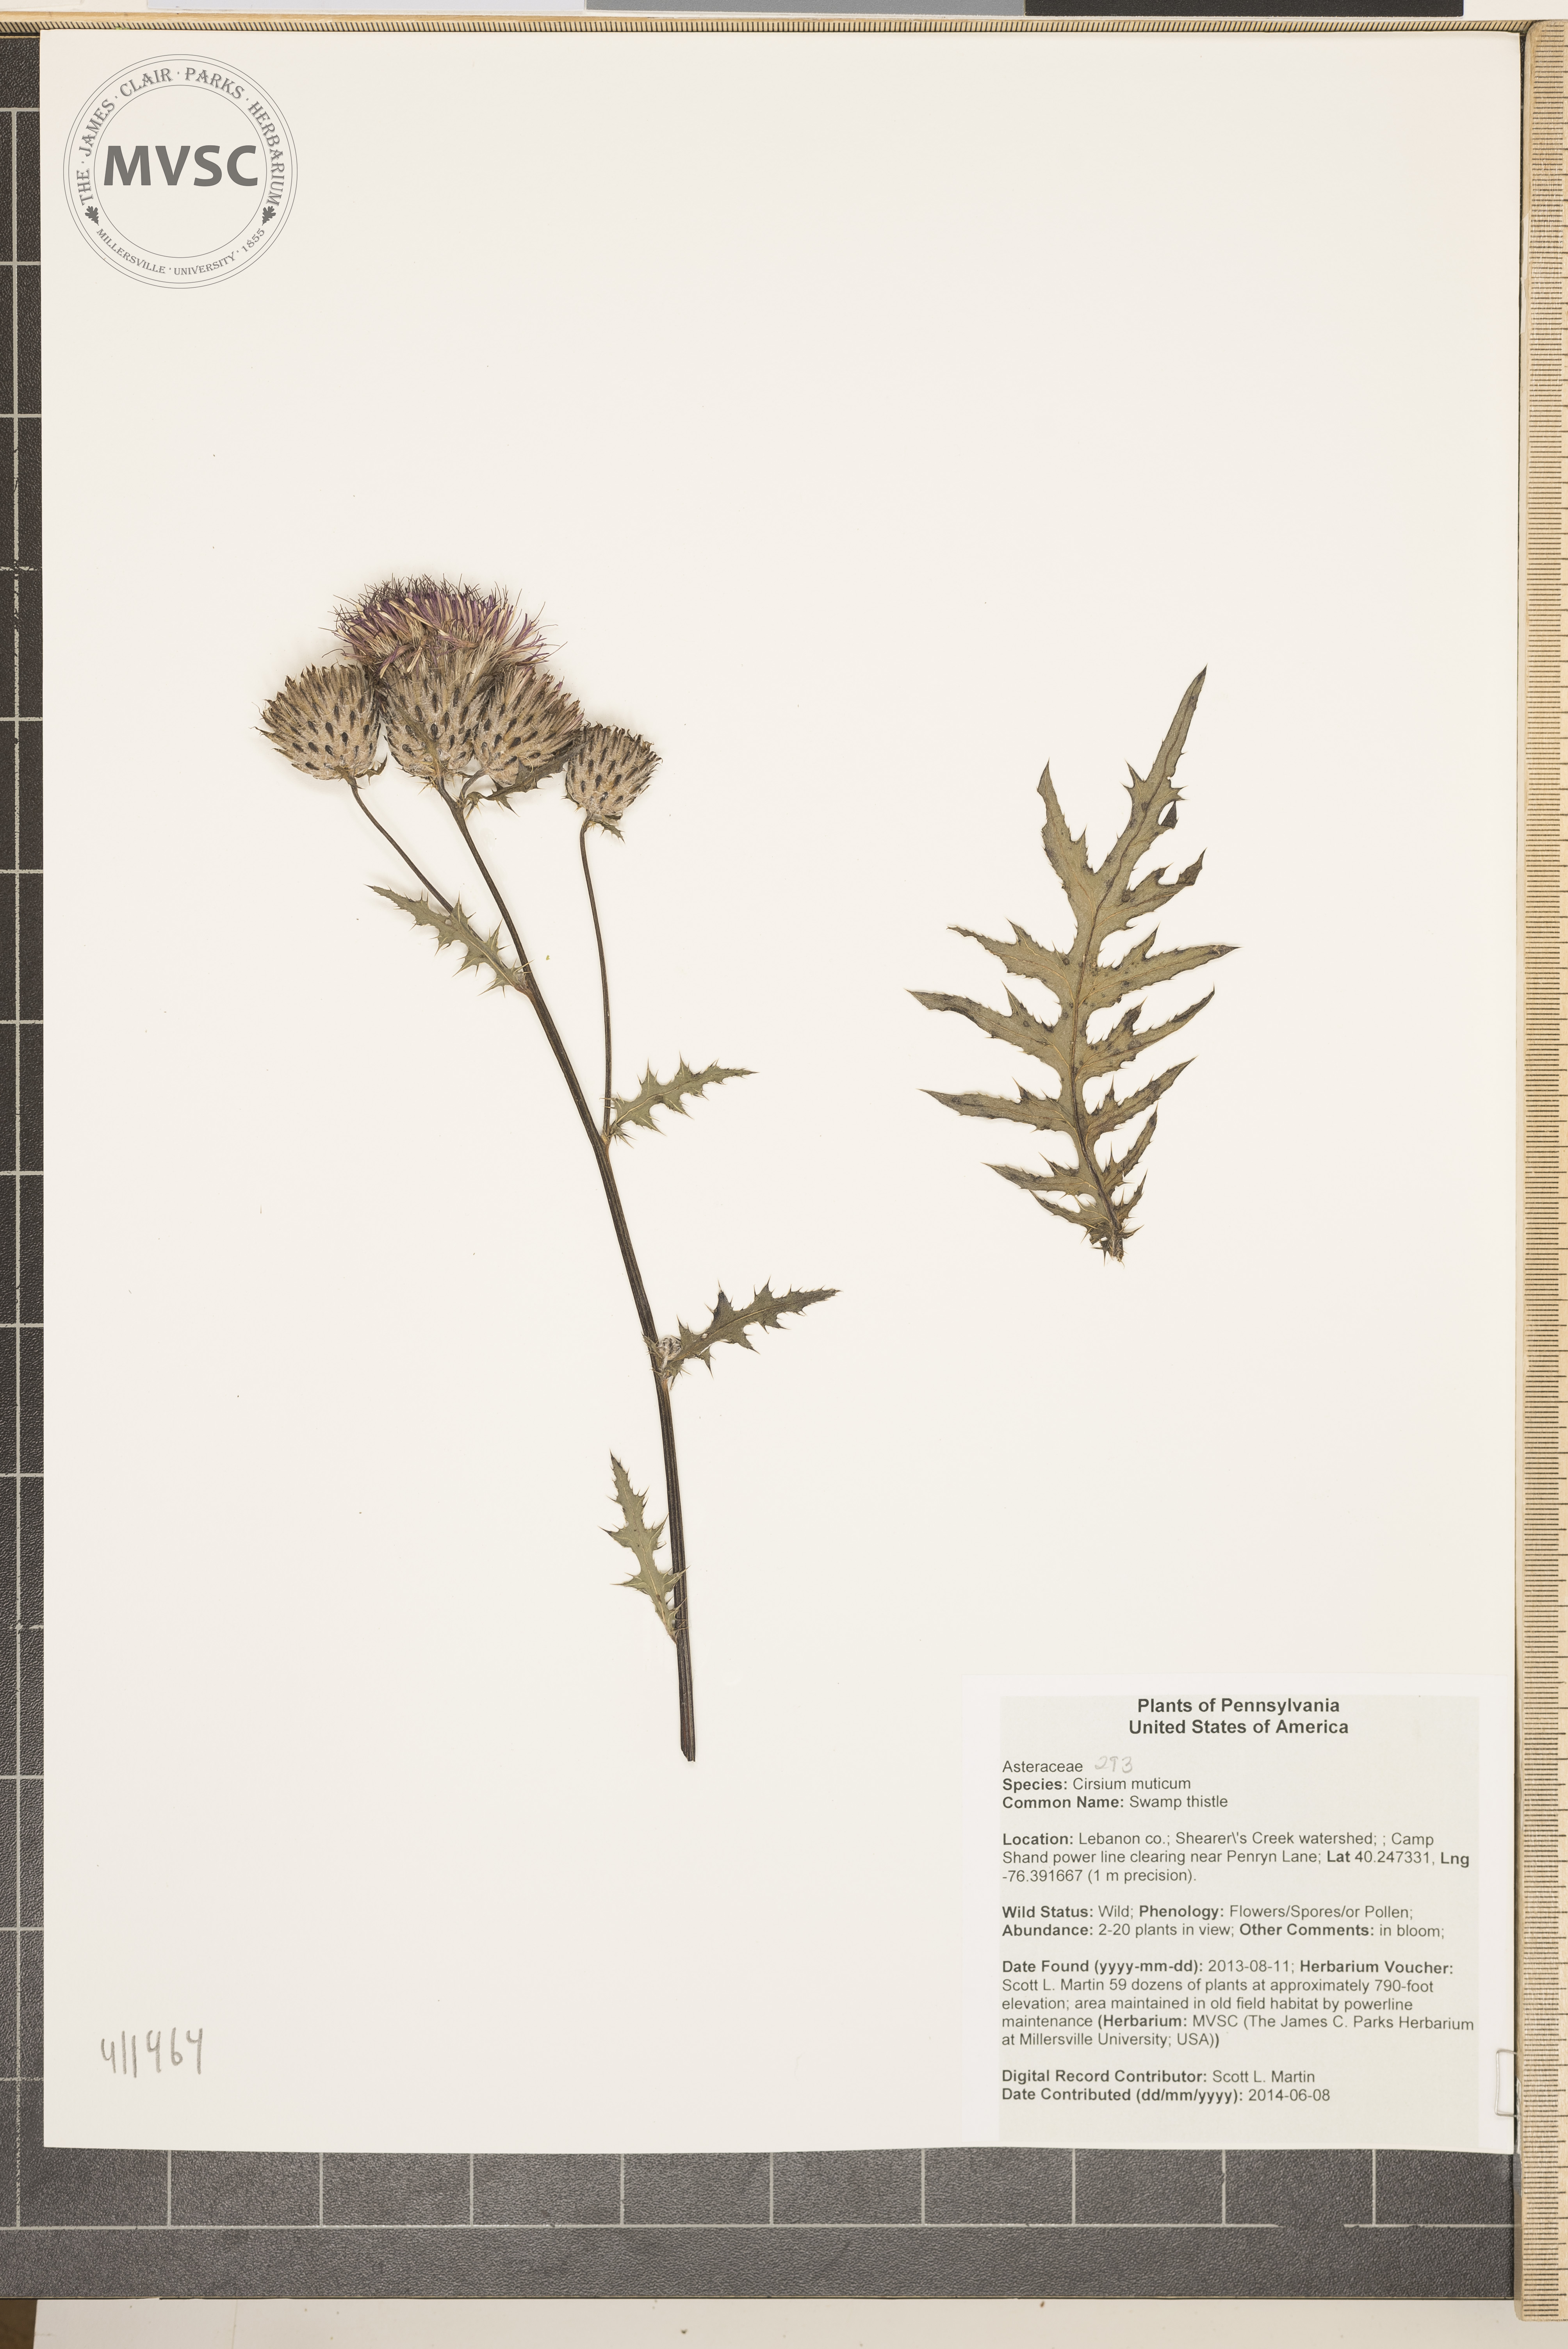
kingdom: Plantae
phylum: Tracheophyta
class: Magnoliopsida
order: Asterales
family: Asteraceae
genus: Cirsium
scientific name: Cirsium muticum
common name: Swamp thistle
